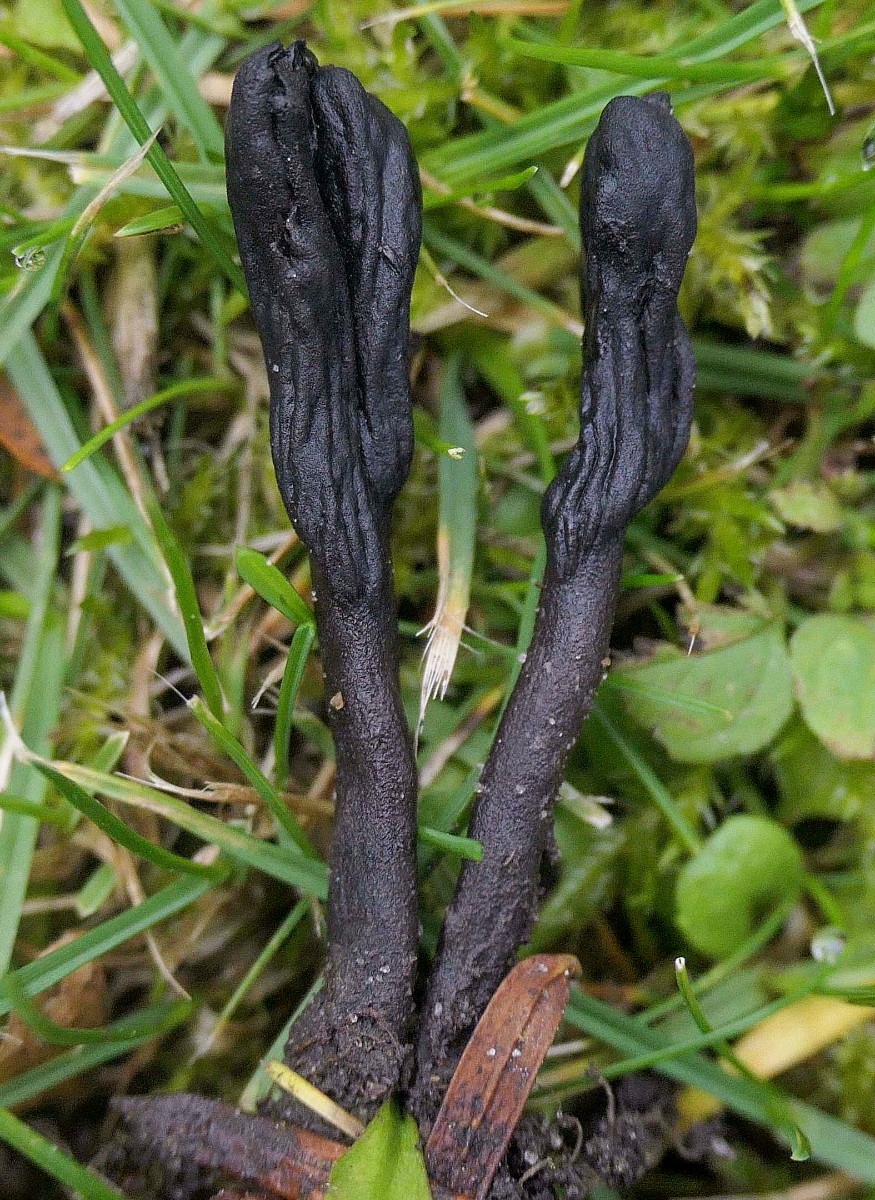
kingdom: Fungi
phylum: Ascomycota
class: Geoglossomycetes
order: Geoglossales
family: Geoglossaceae
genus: Geoglossum
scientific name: Geoglossum
